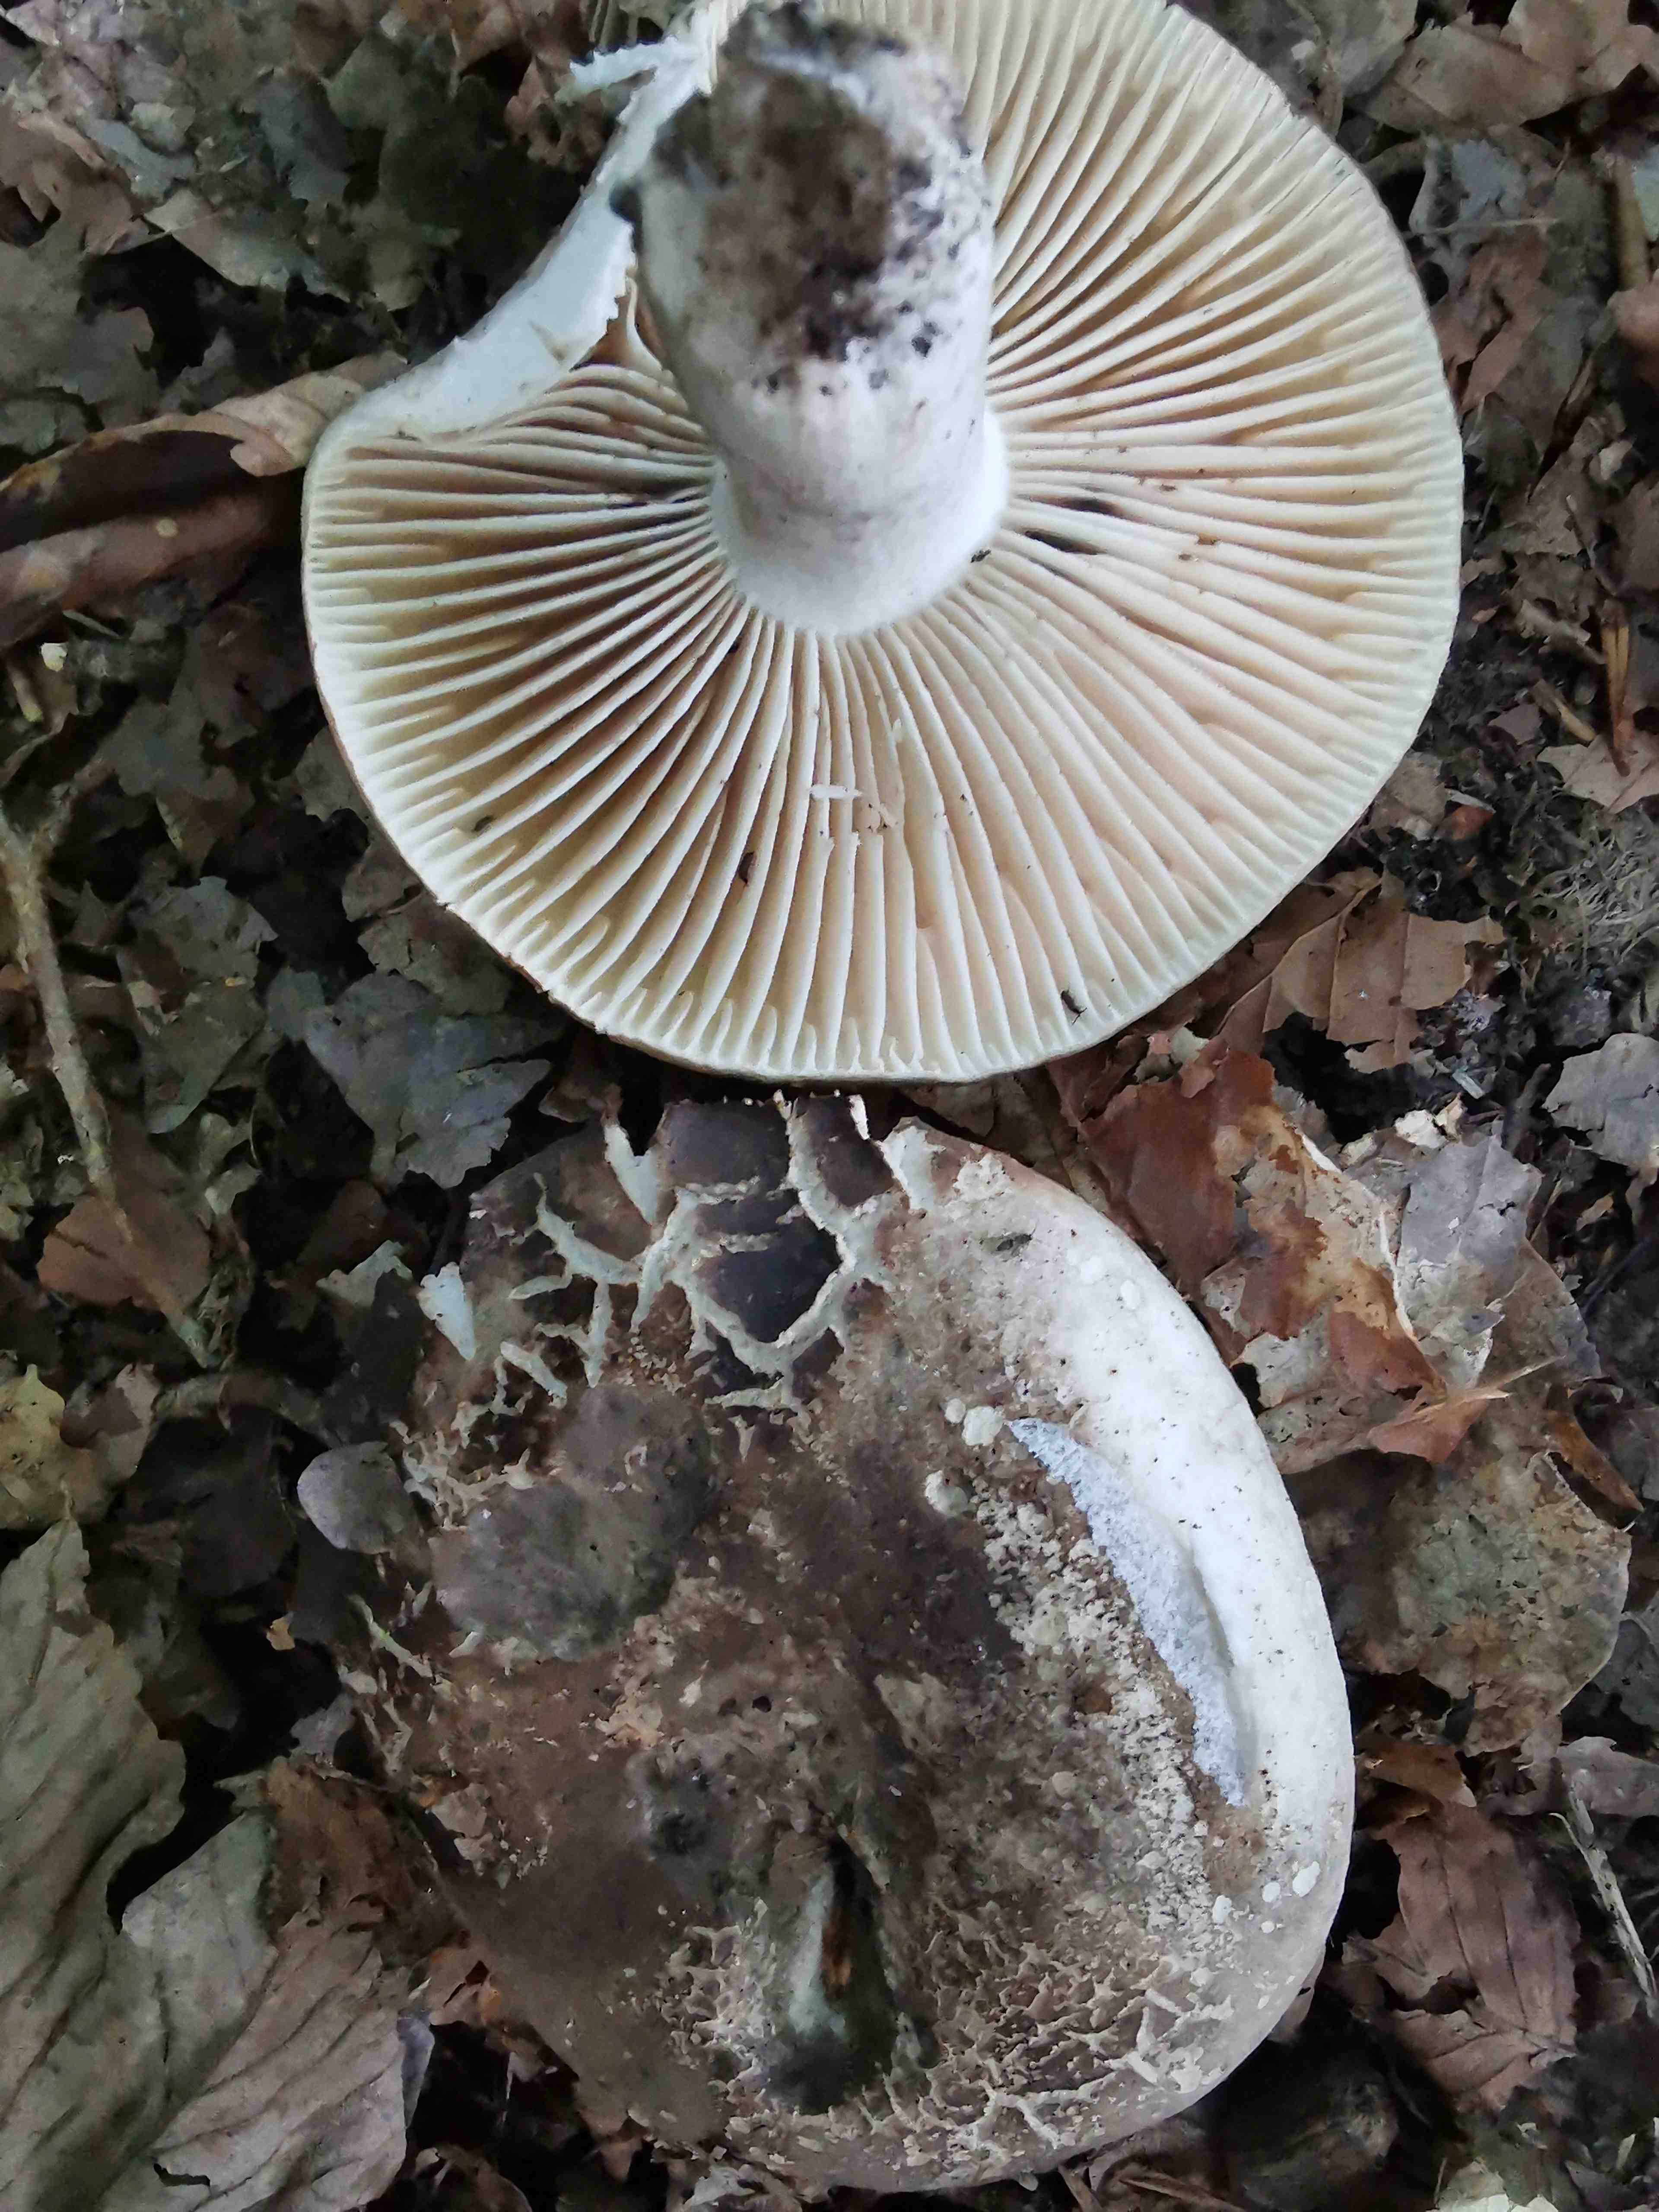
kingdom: Fungi
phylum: Basidiomycota
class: Agaricomycetes
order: Russulales
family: Russulaceae
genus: Russula
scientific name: Russula adusta
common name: sværtende skørhat
